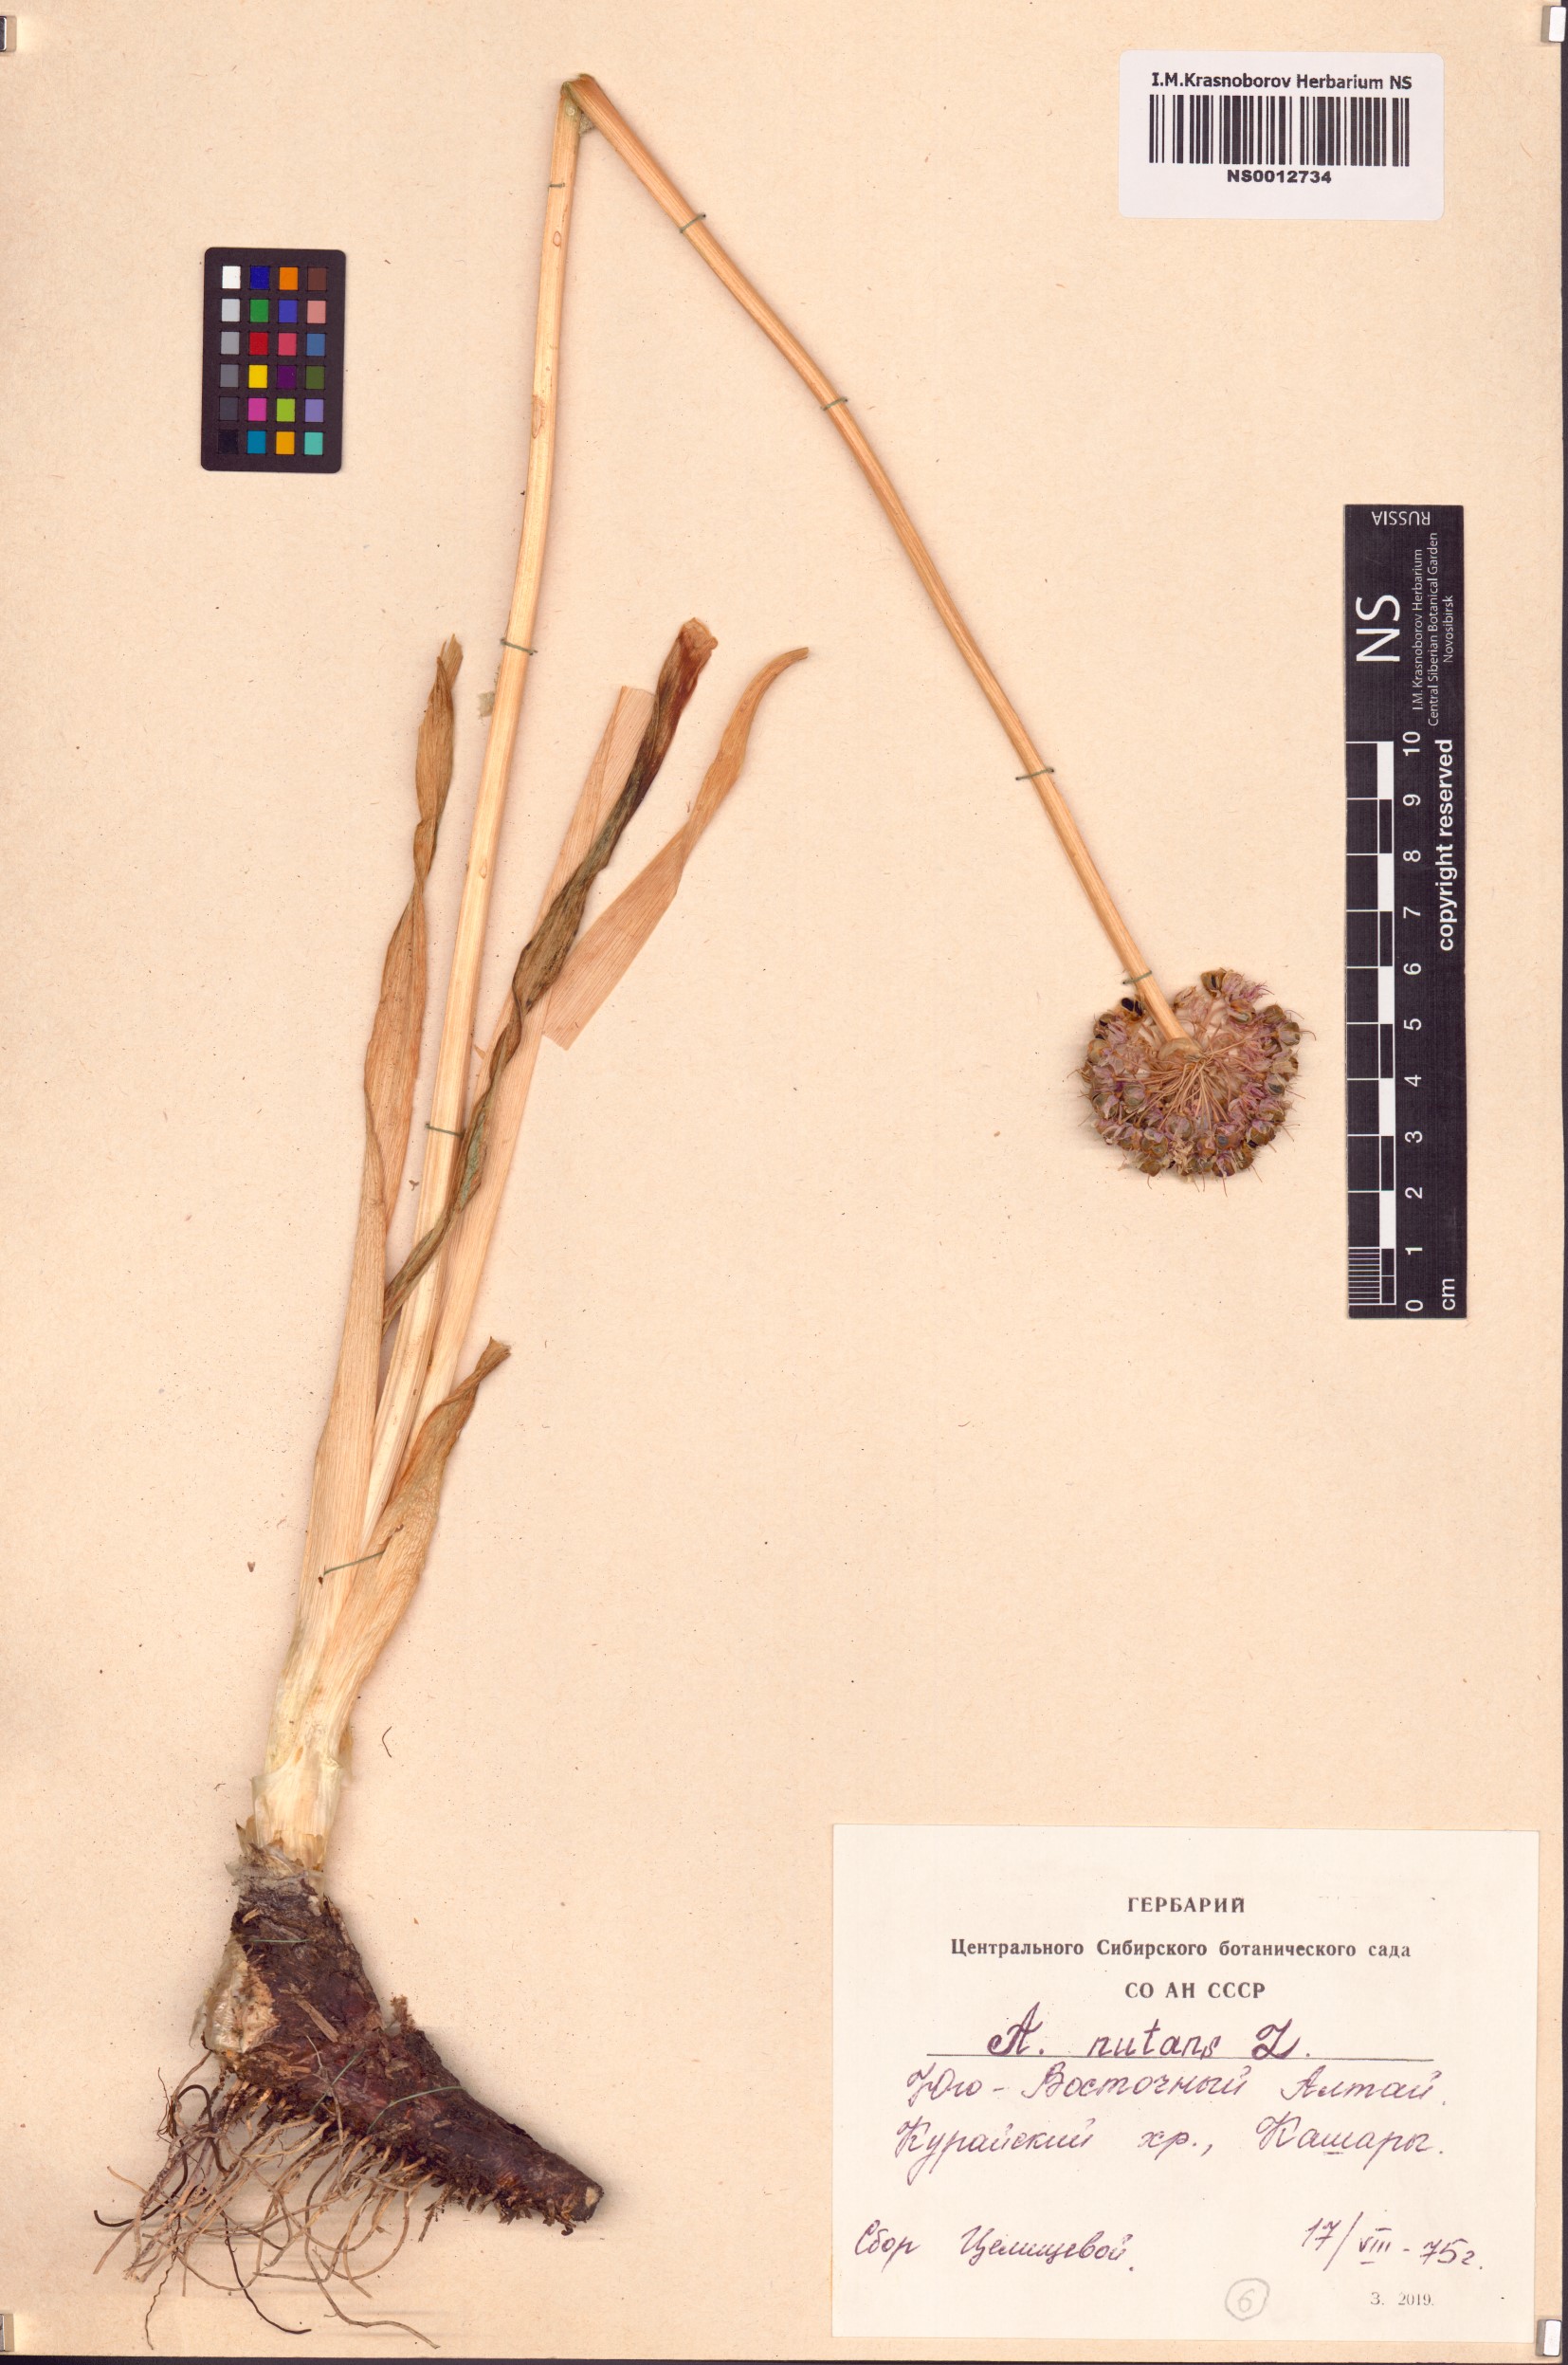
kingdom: Plantae
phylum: Tracheophyta
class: Liliopsida
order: Asparagales
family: Amaryllidaceae
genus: Allium
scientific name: Allium nutans
